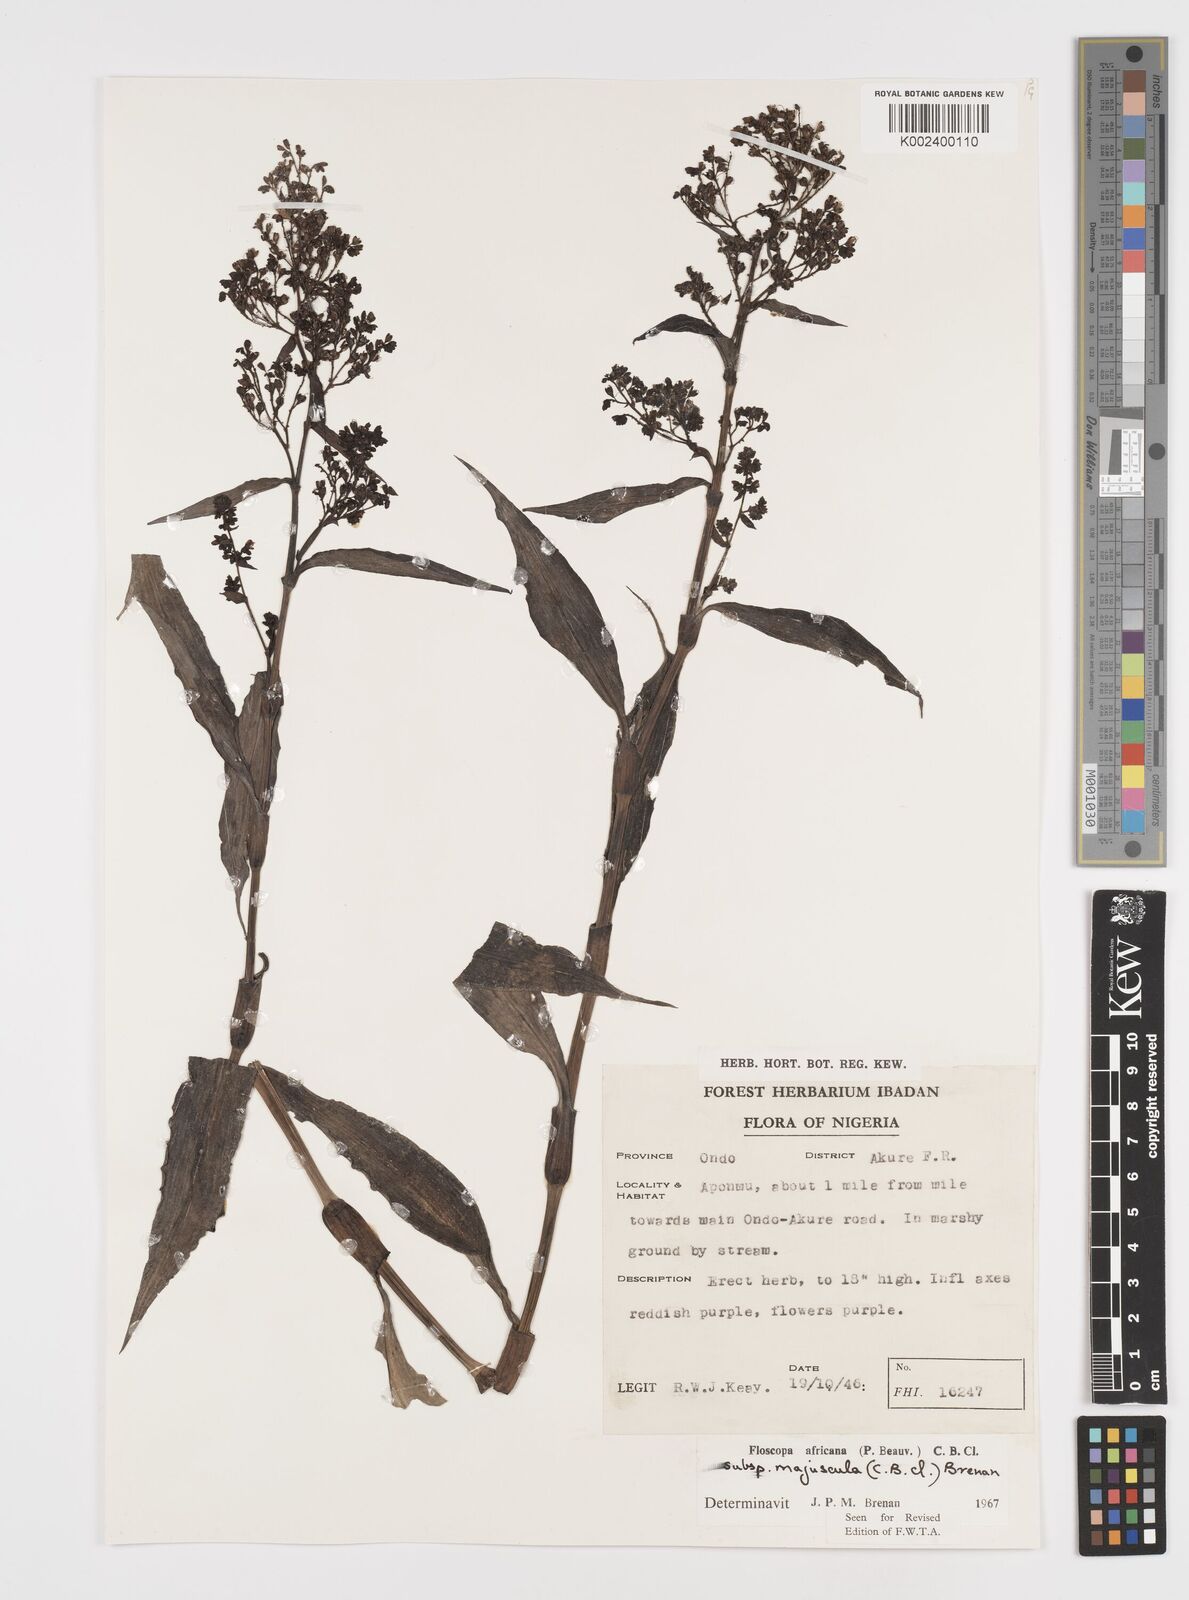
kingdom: Plantae
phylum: Tracheophyta
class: Liliopsida
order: Commelinales
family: Commelinaceae
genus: Floscopa
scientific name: Floscopa africana
